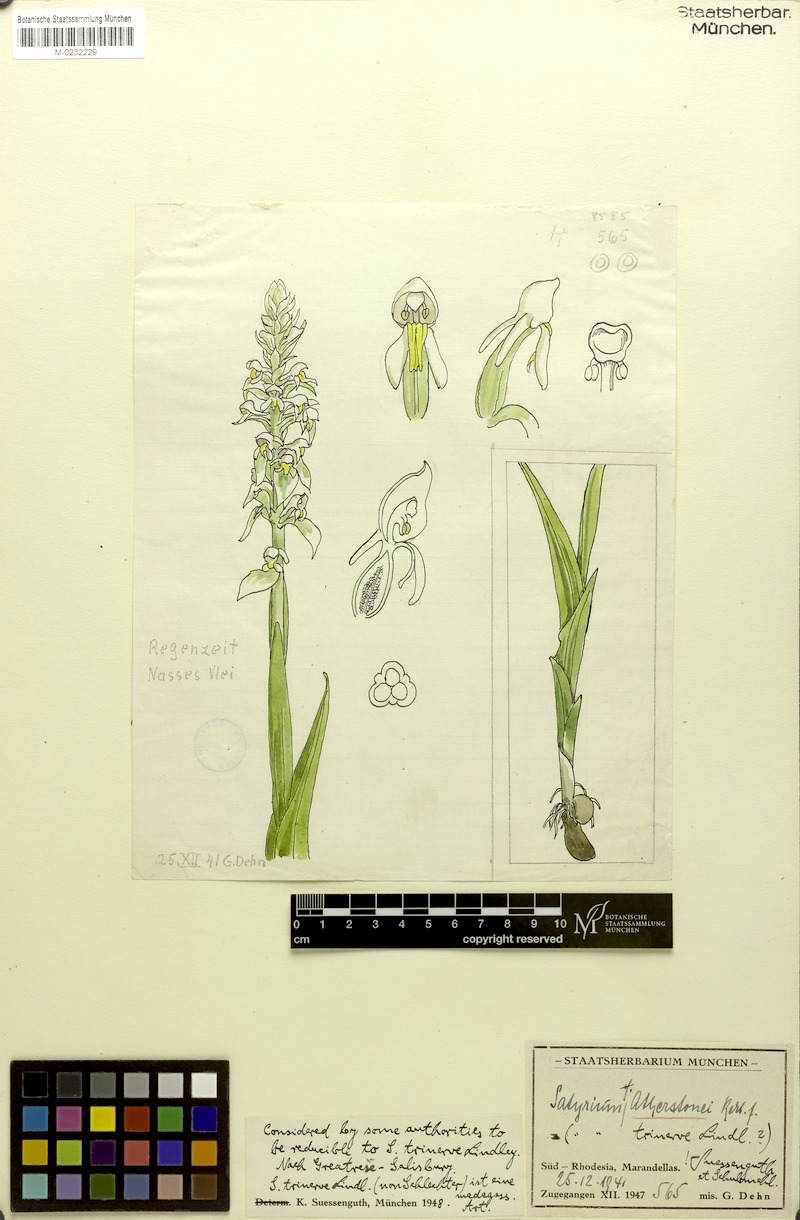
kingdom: Plantae
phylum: Tracheophyta
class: Liliopsida
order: Asparagales
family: Orchidaceae
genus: Satyrium
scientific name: Satyrium trinerve
